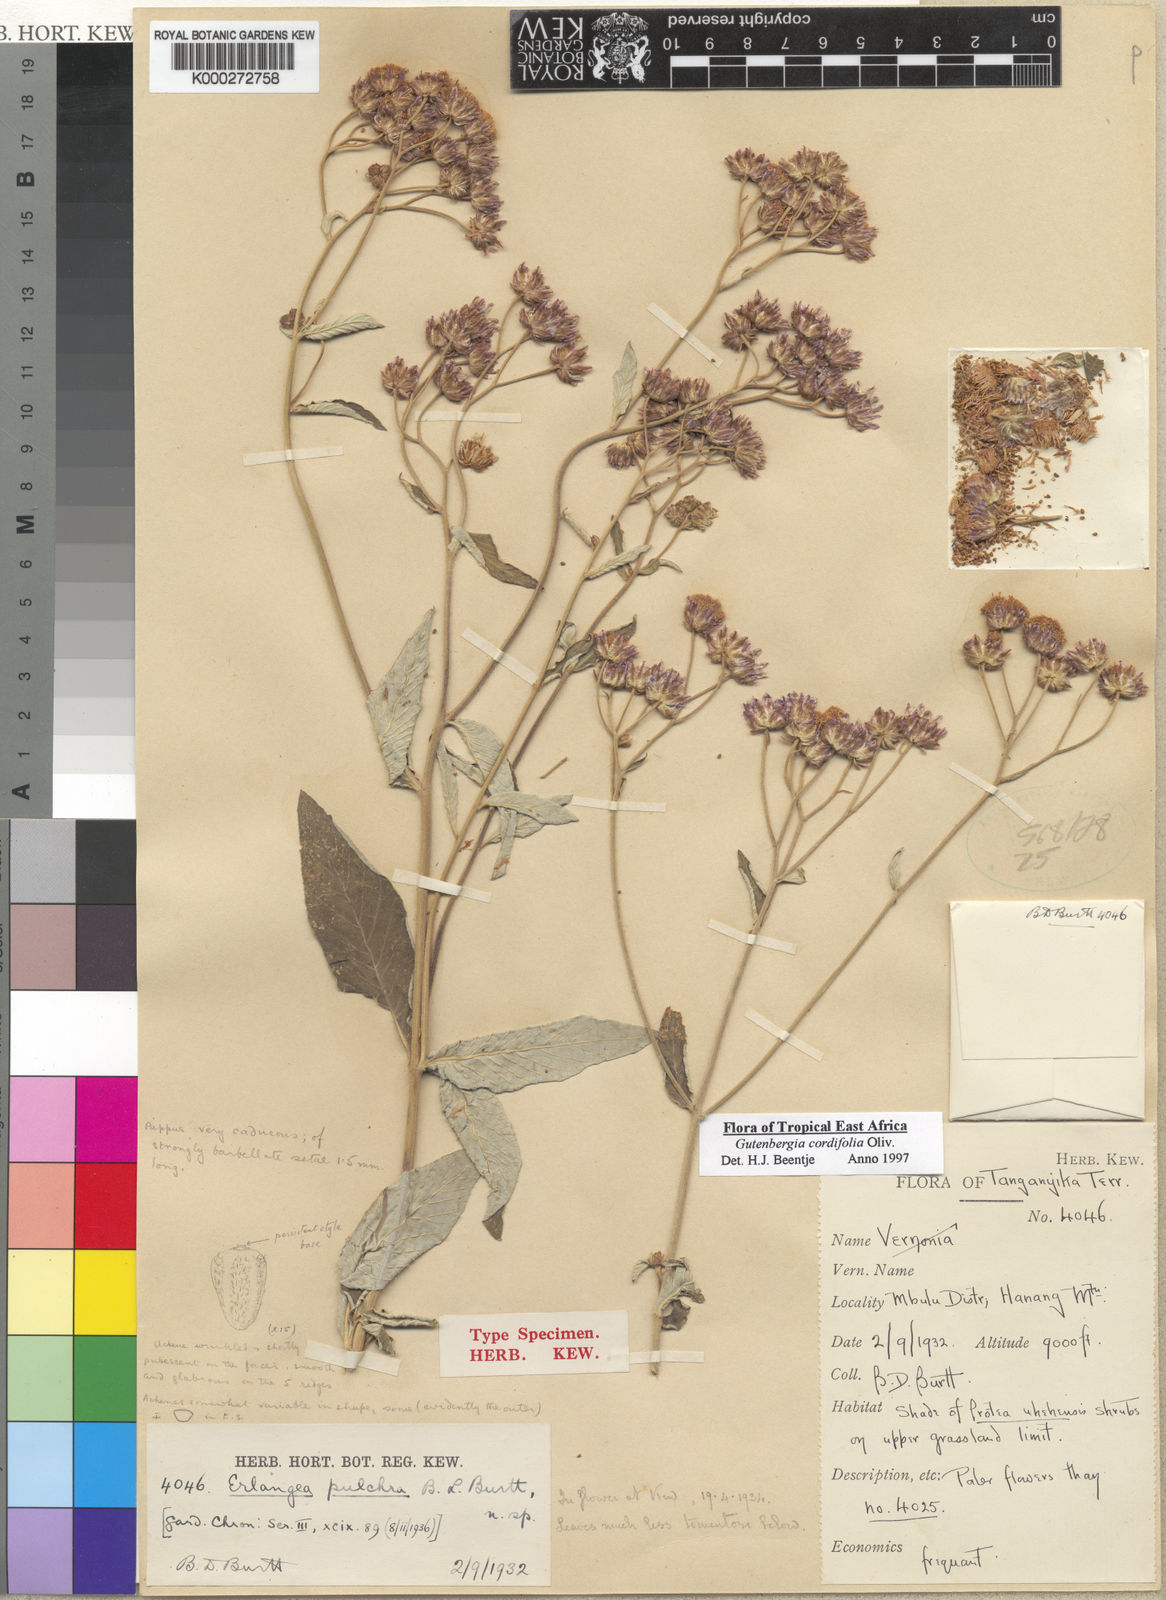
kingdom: Plantae
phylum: Tracheophyta
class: Magnoliopsida
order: Asterales
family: Asteraceae
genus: Gutenbergia
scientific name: Gutenbergia cordifolia
